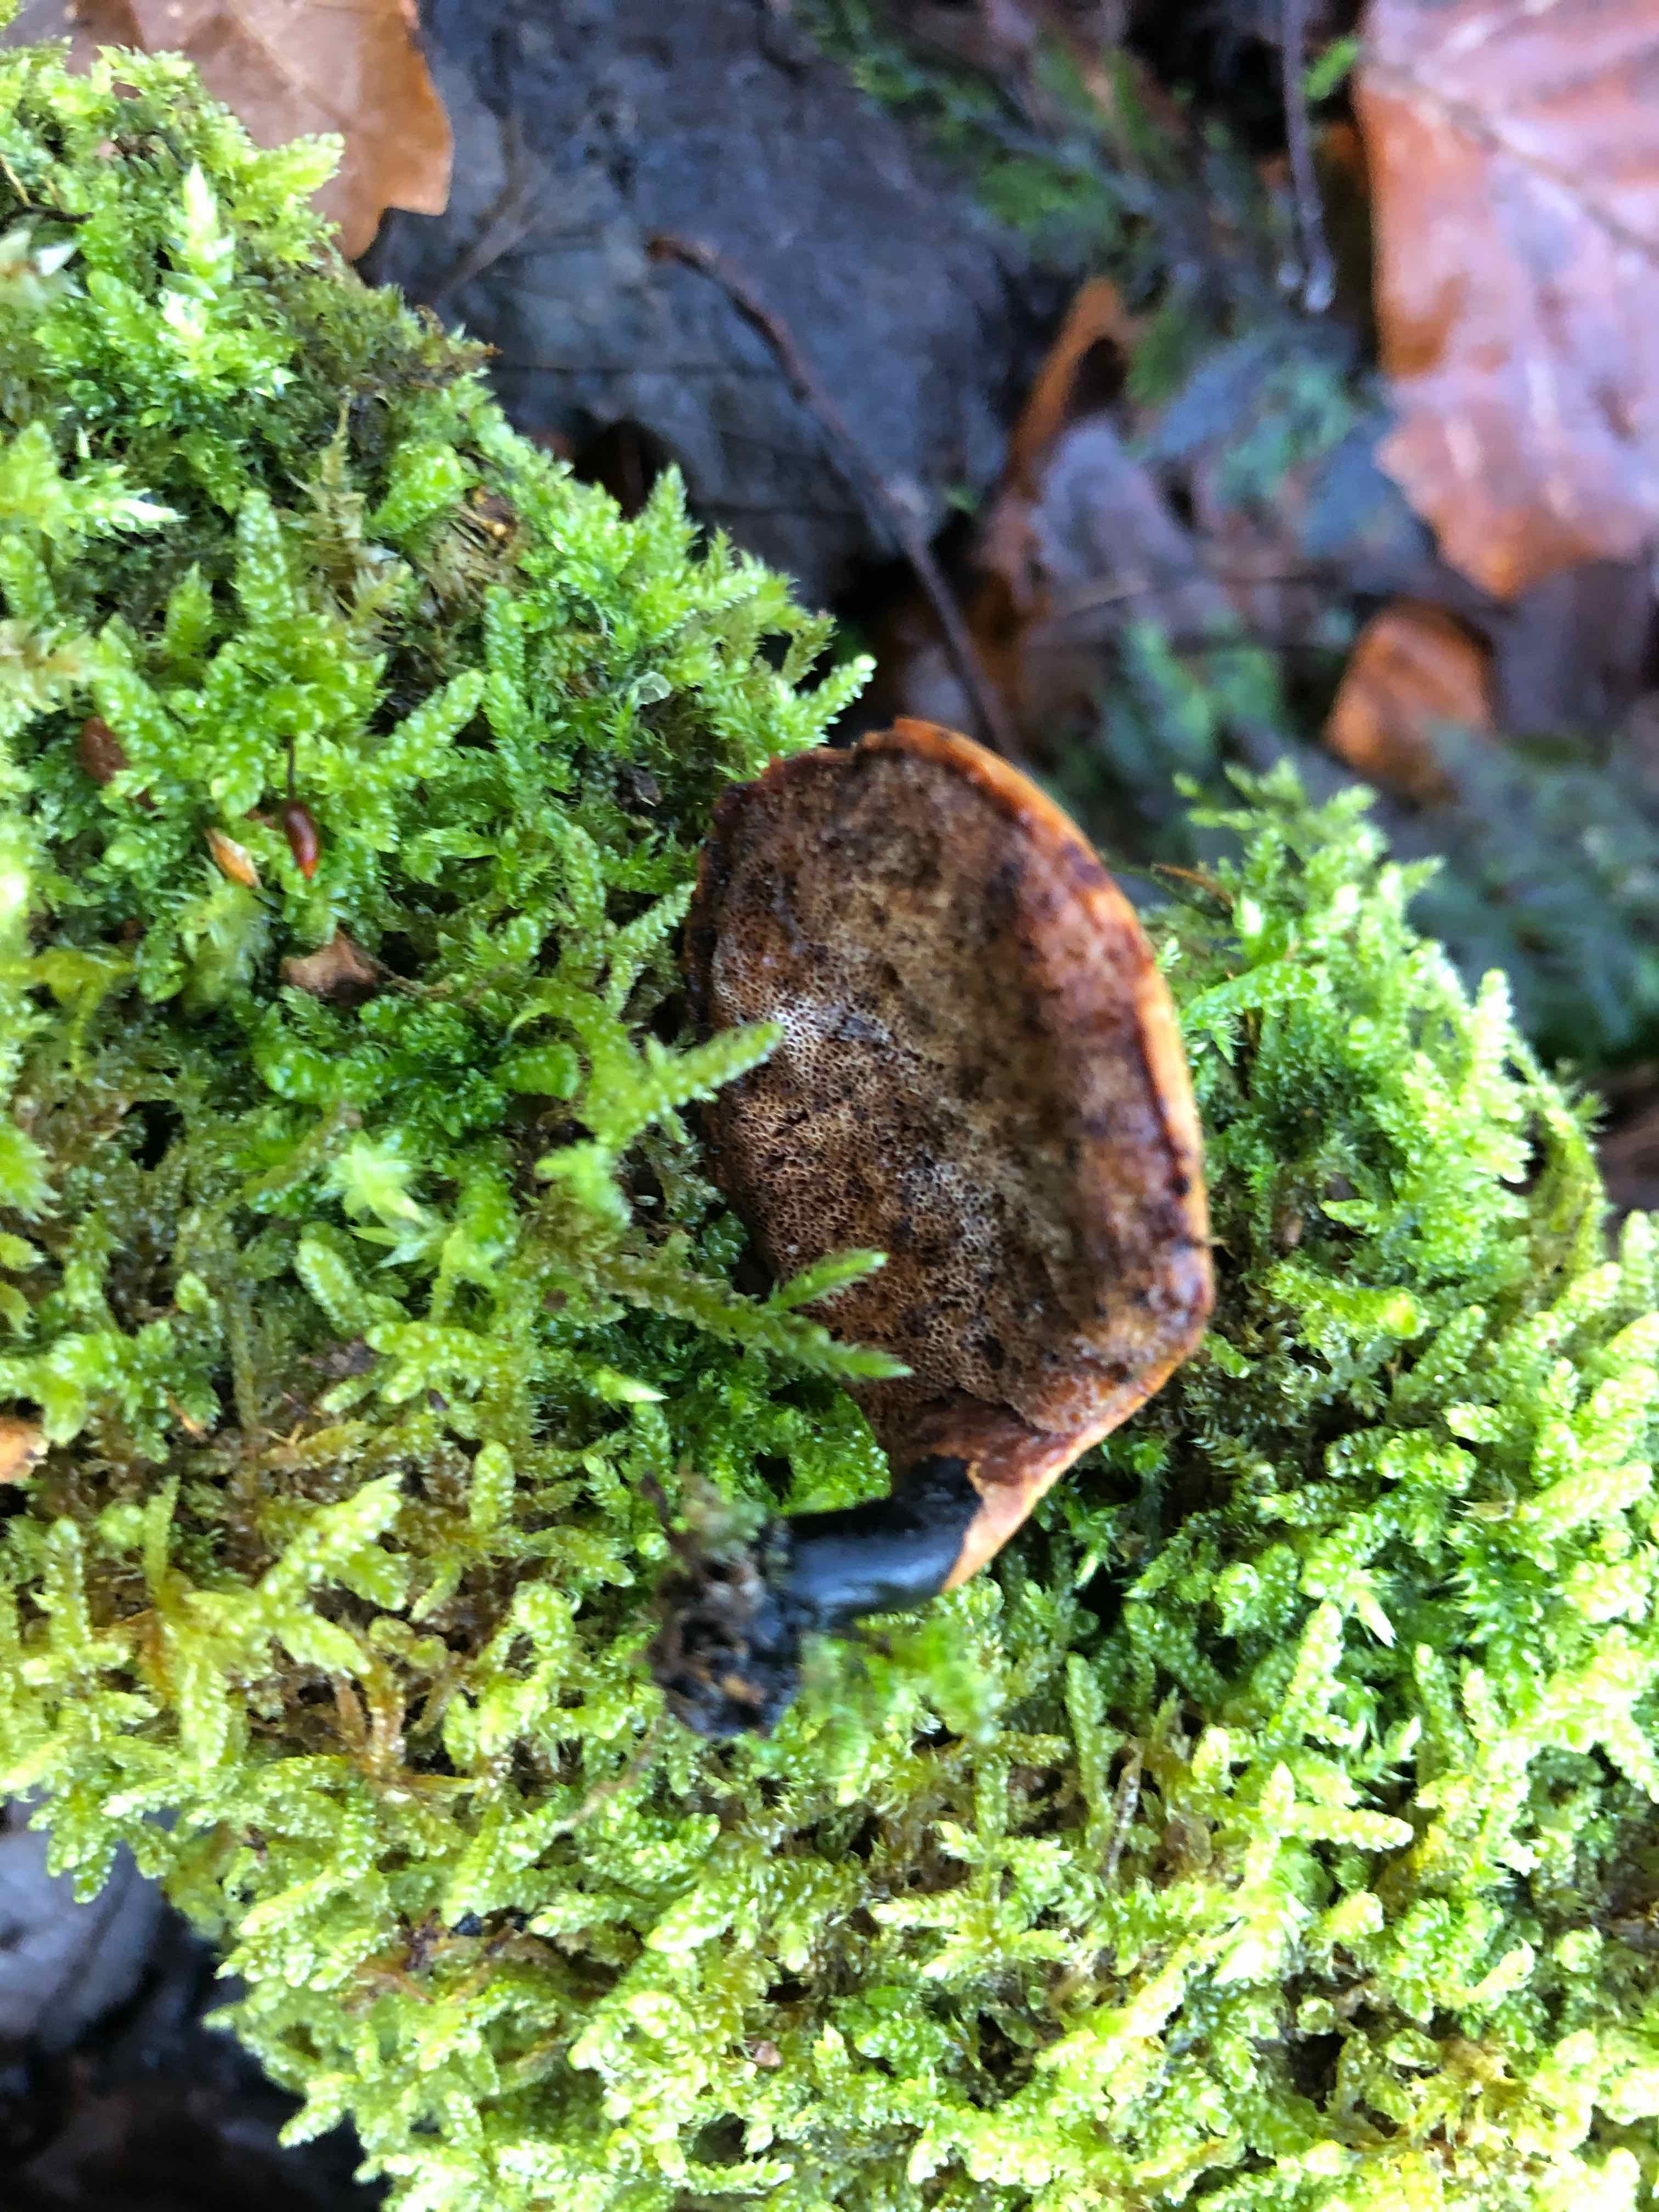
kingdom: Fungi
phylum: Basidiomycota
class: Agaricomycetes
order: Polyporales
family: Polyporaceae
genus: Cerioporus
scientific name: Cerioporus varius
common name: foranderlig stilkporesvamp
